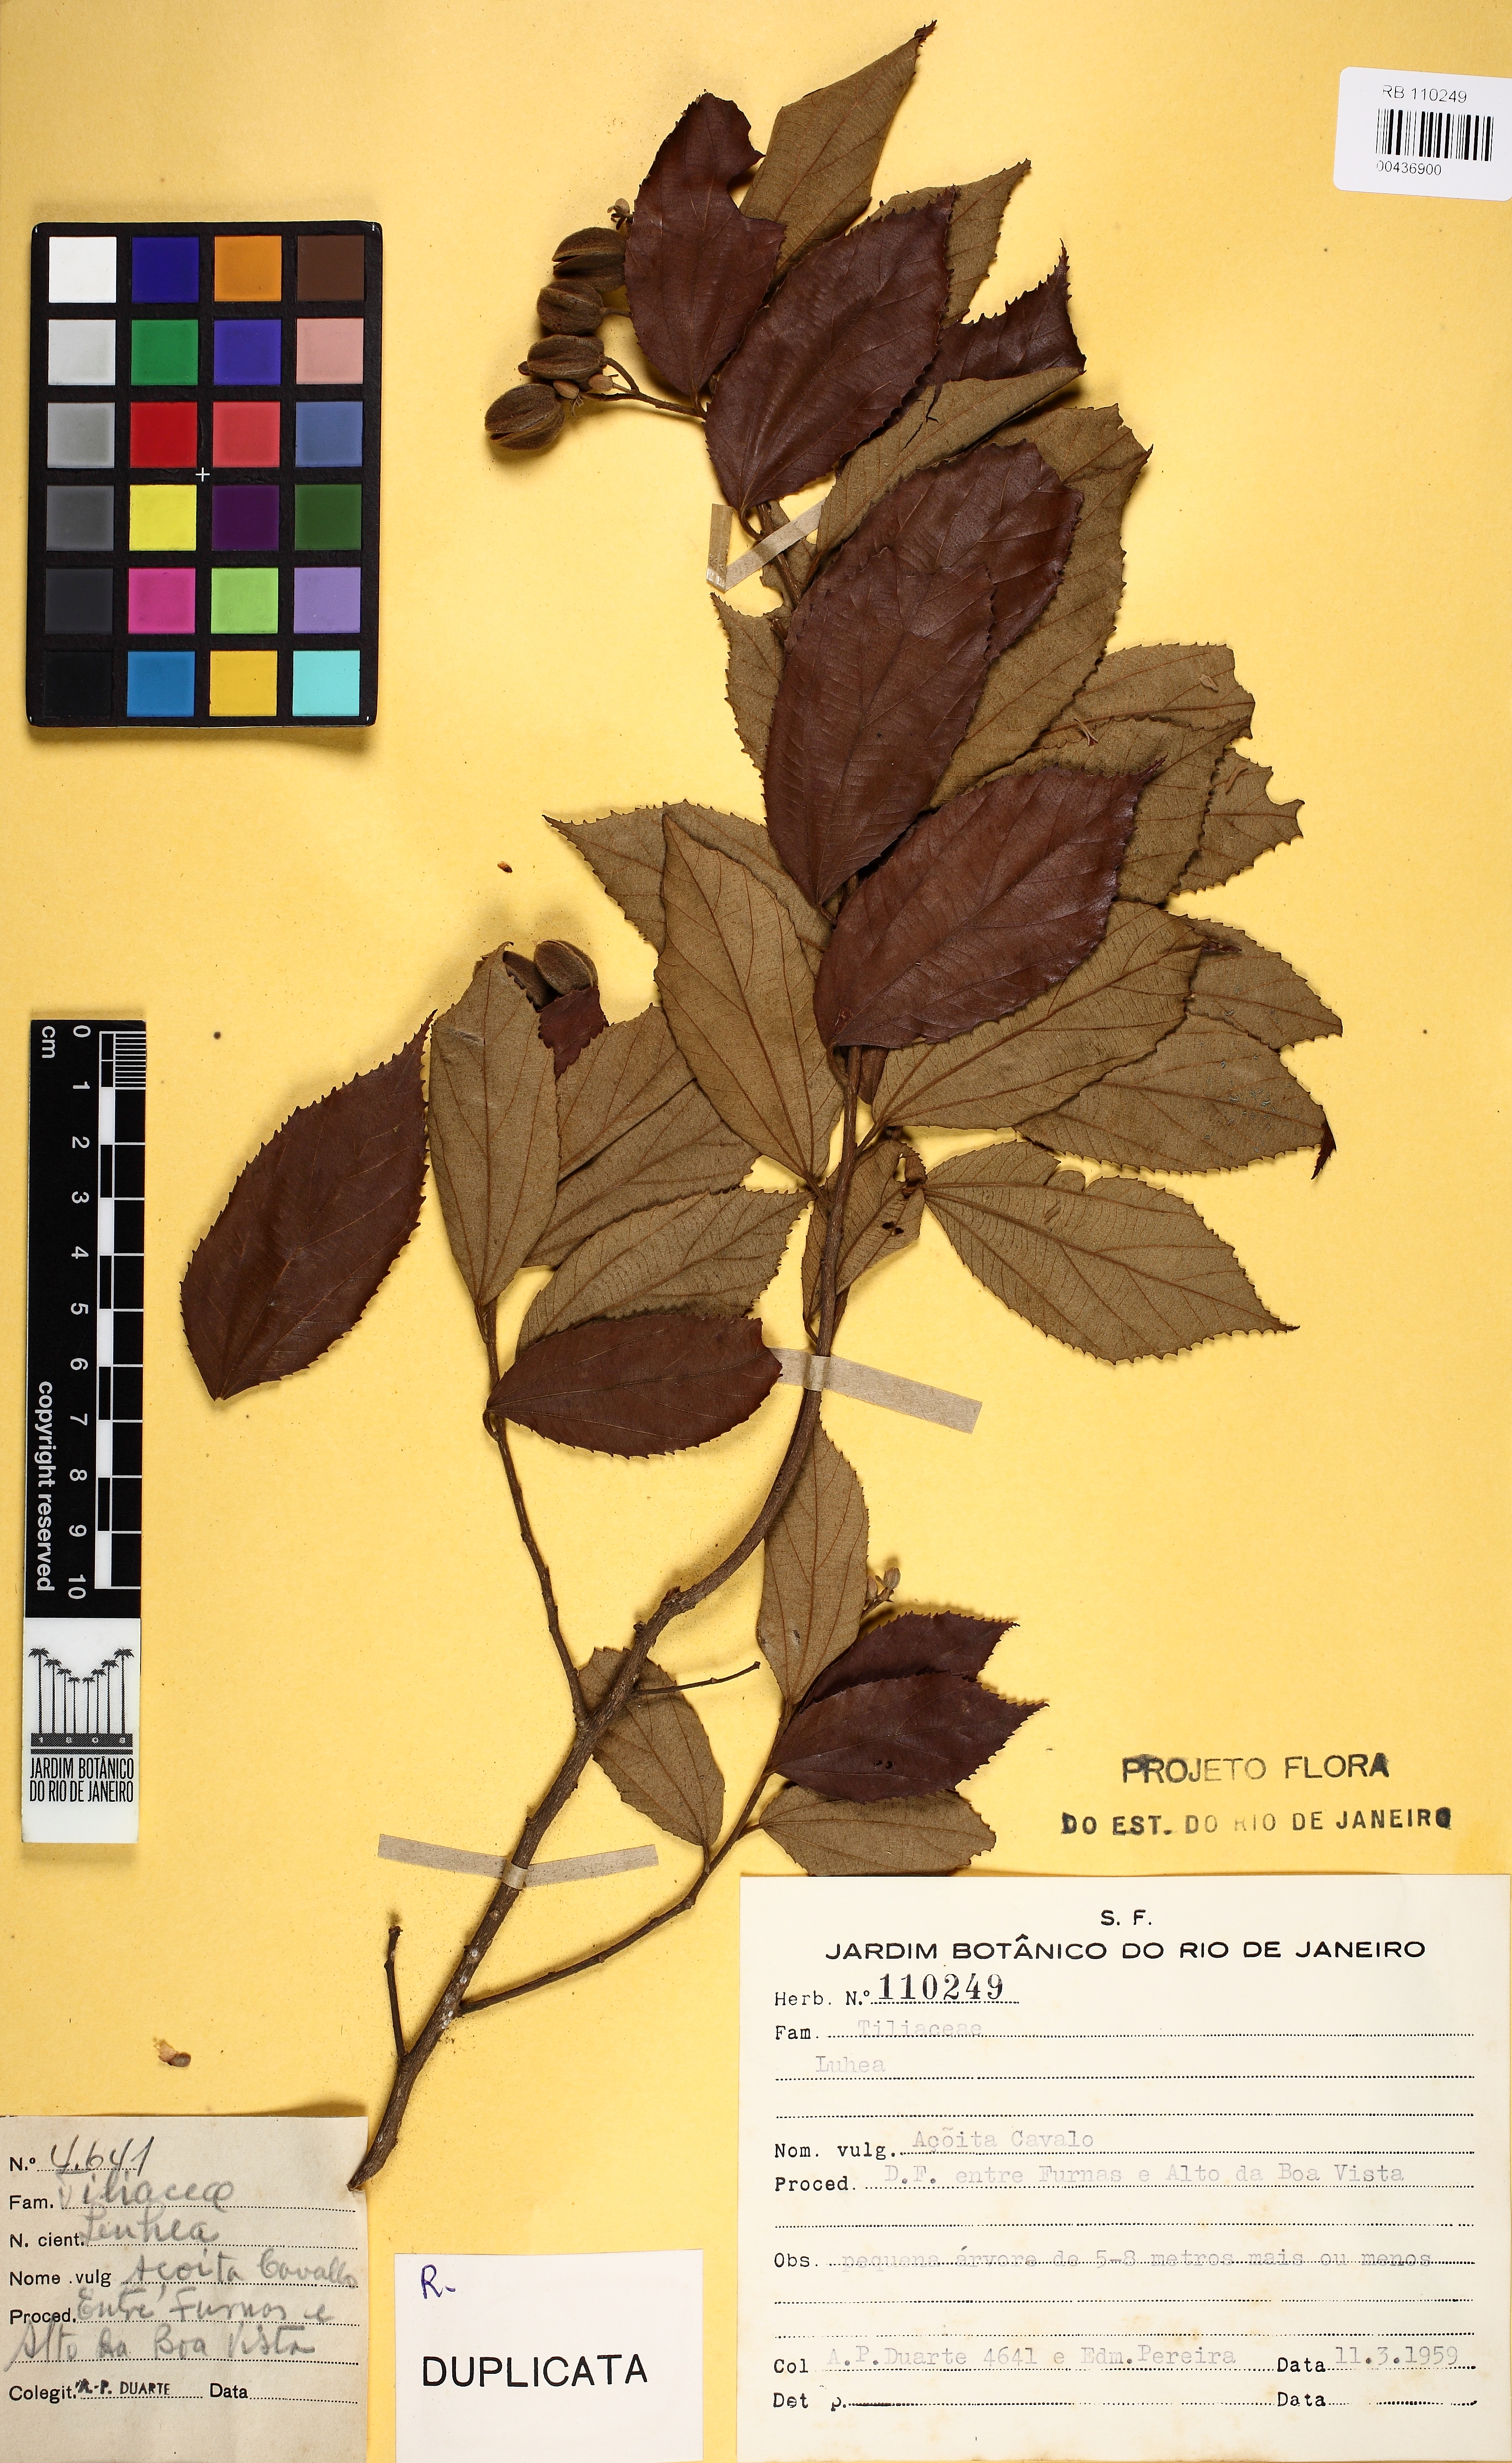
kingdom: Plantae
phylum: Tracheophyta
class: Magnoliopsida
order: Malvales
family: Malvaceae
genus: Luehea
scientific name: Luehea conwentzii
